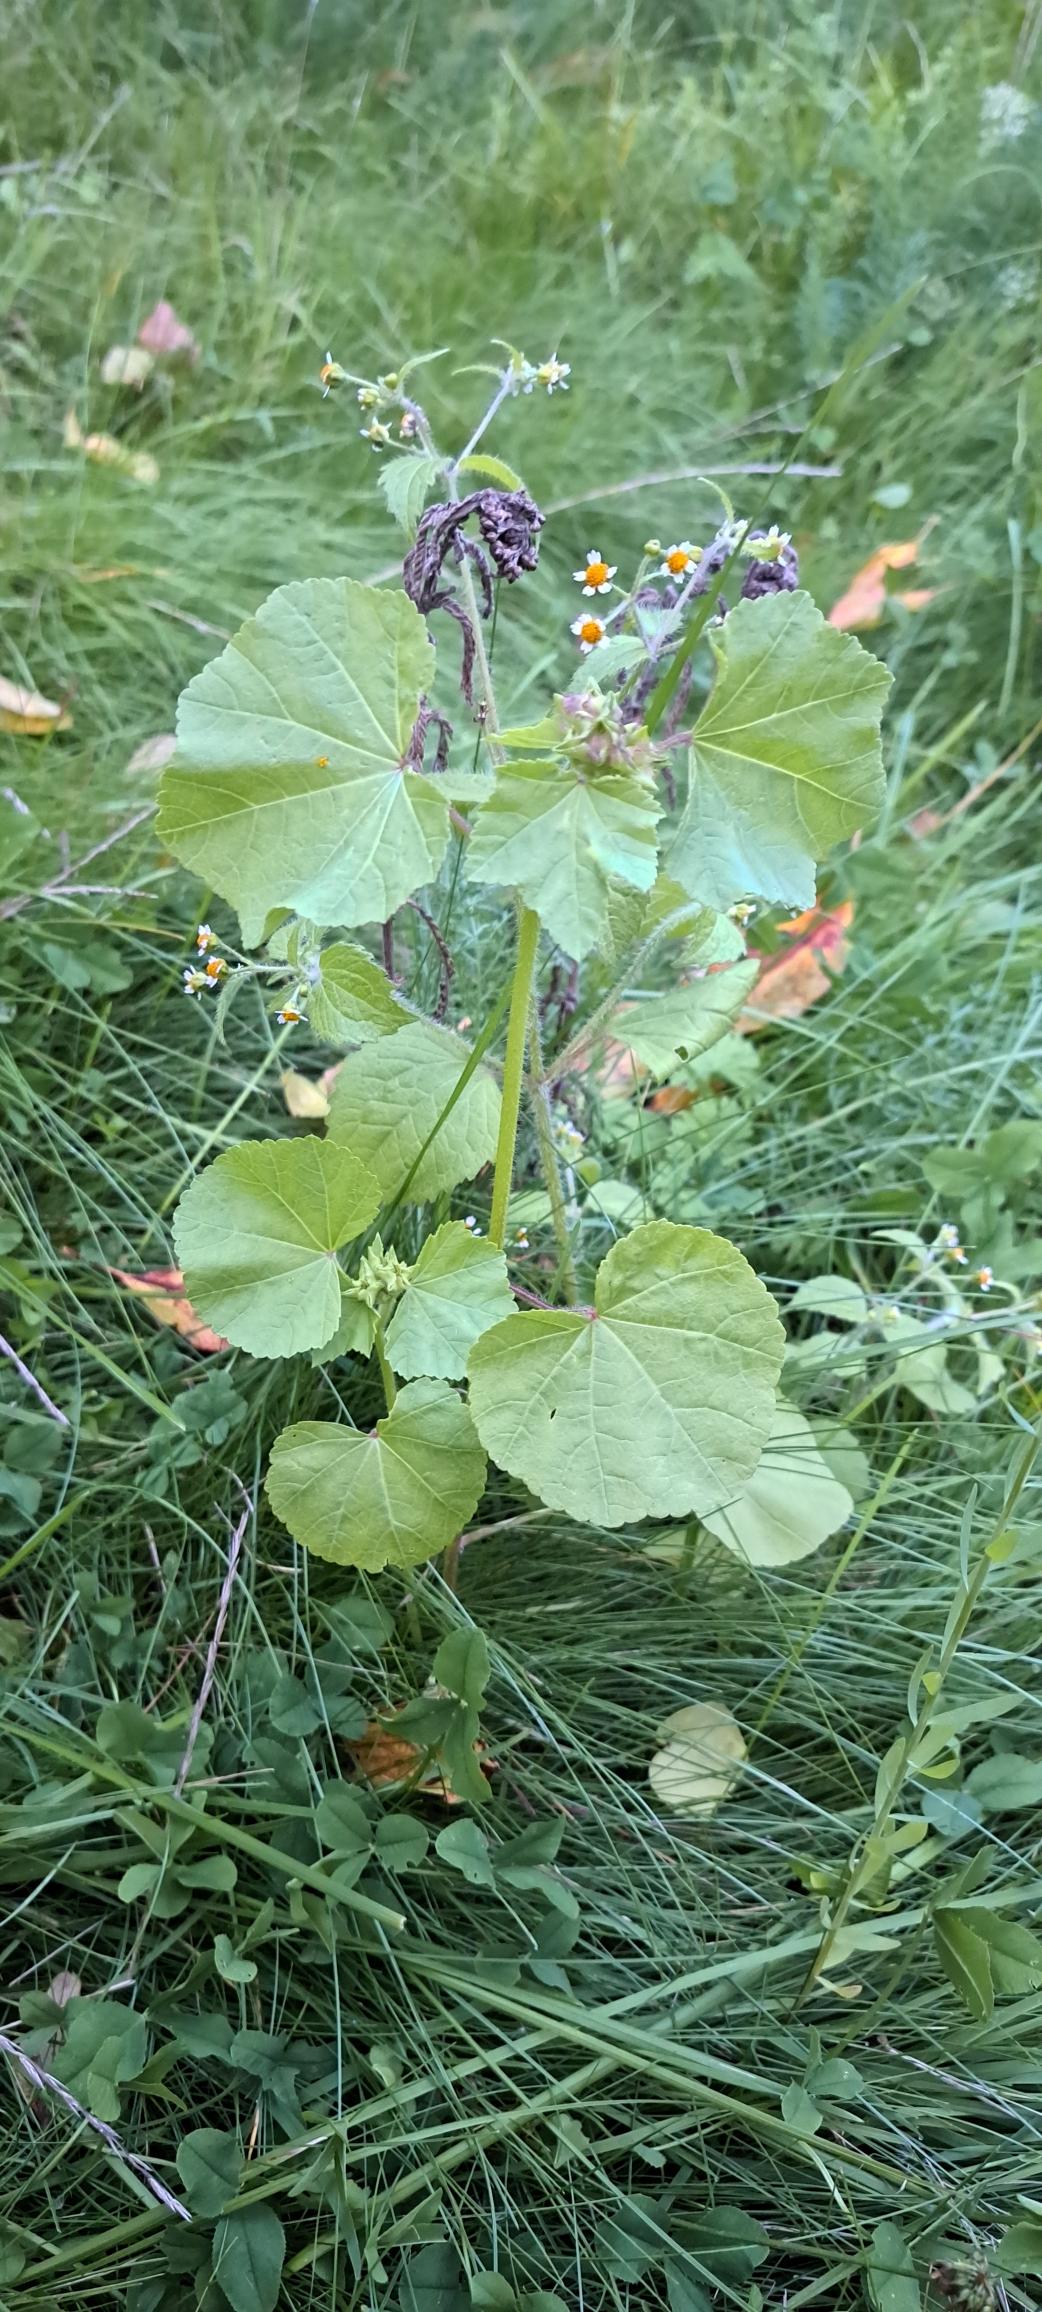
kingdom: Plantae
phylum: Tracheophyta
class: Magnoliopsida
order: Asterales
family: Asteraceae
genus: Galinsoga
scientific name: Galinsoga
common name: Kortstråleslægten
